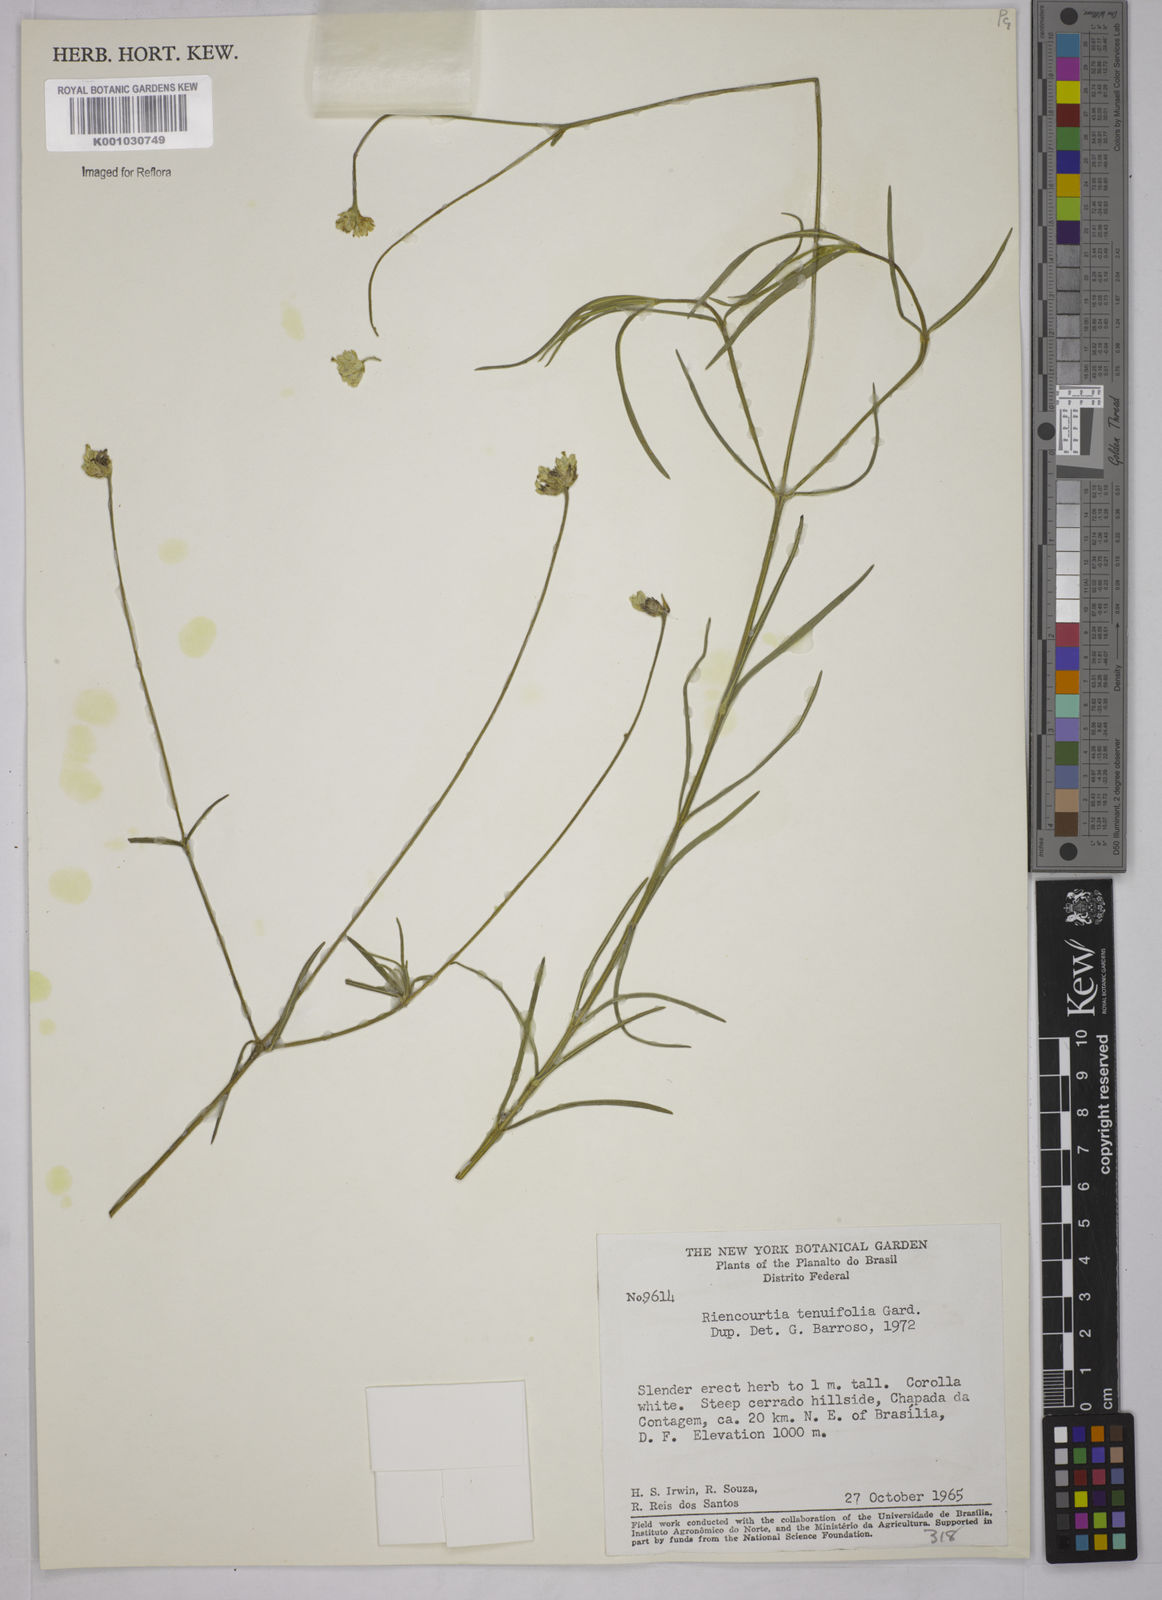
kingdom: Plantae
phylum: Tracheophyta
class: Magnoliopsida
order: Asterales
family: Asteraceae
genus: Riencourtia
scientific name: Riencourtia tenuifolia
